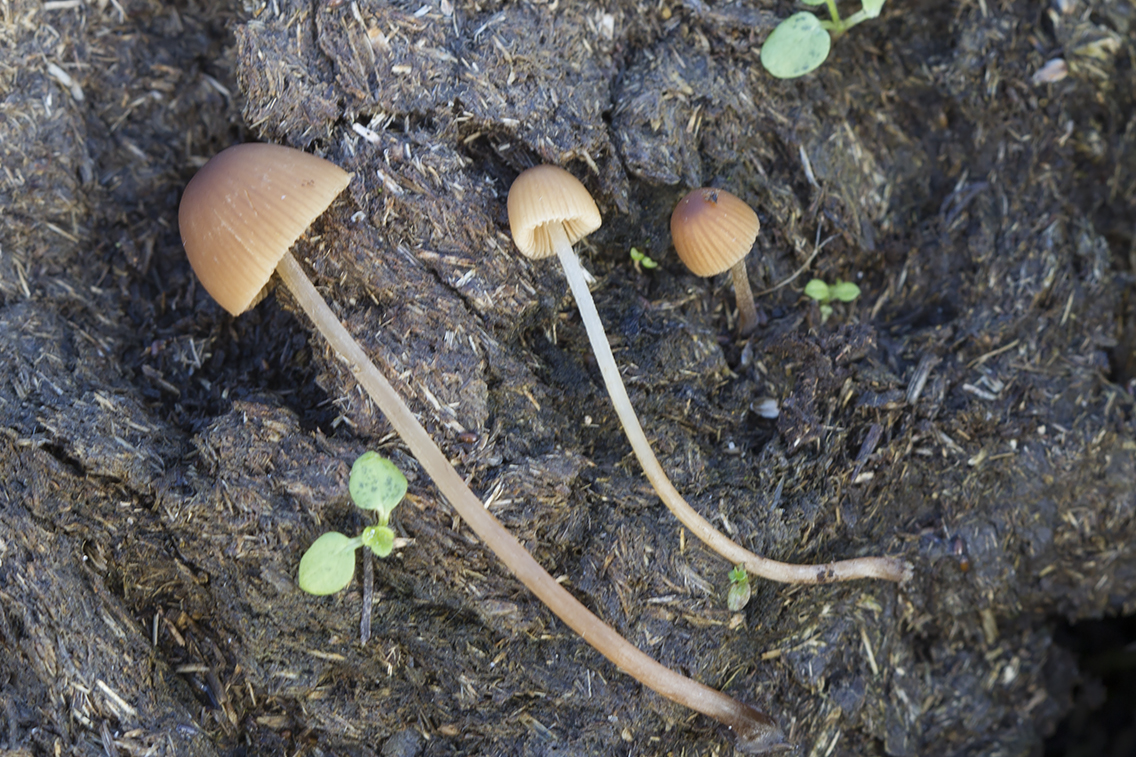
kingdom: Fungi
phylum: Basidiomycota
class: Agaricomycetes
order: Agaricales
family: Bolbitiaceae
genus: Conocybe
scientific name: Conocybe brunneidisca
